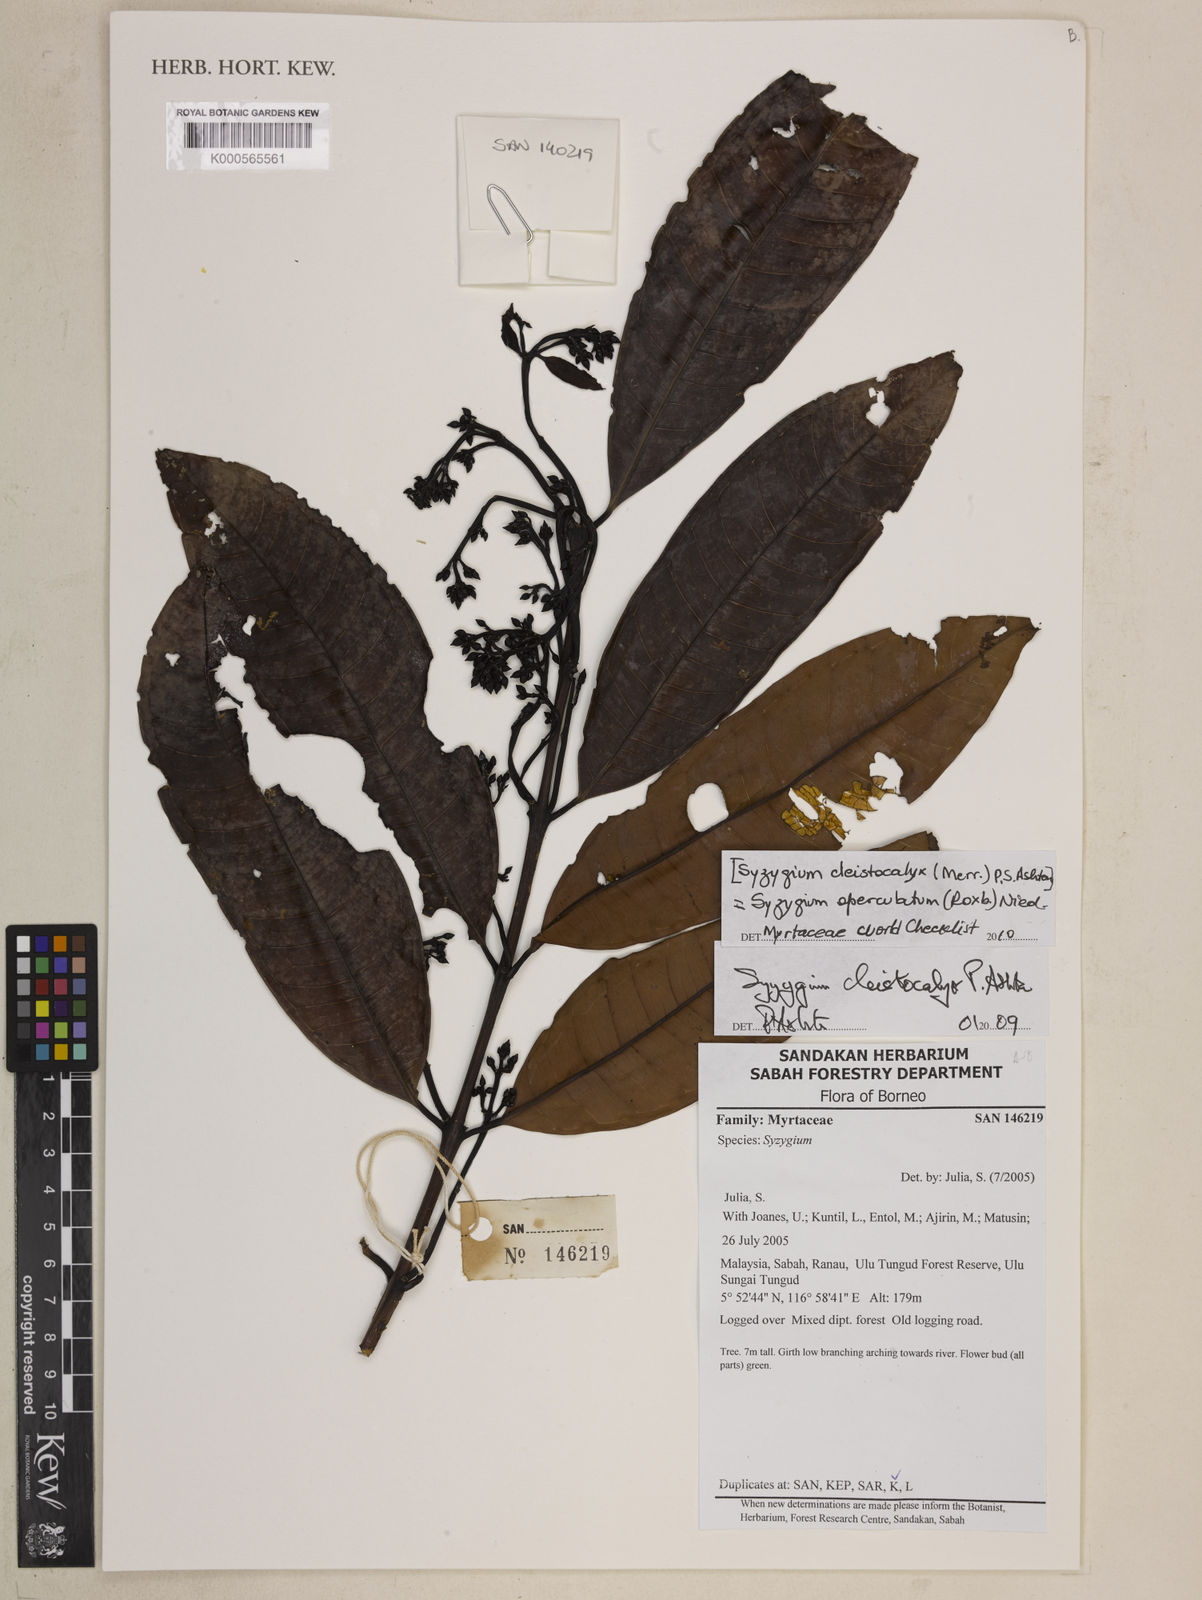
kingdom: Plantae
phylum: Tracheophyta
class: Magnoliopsida
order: Myrtales
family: Myrtaceae
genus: Syzygium
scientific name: Syzygium nervosum
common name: Daly river satinash
